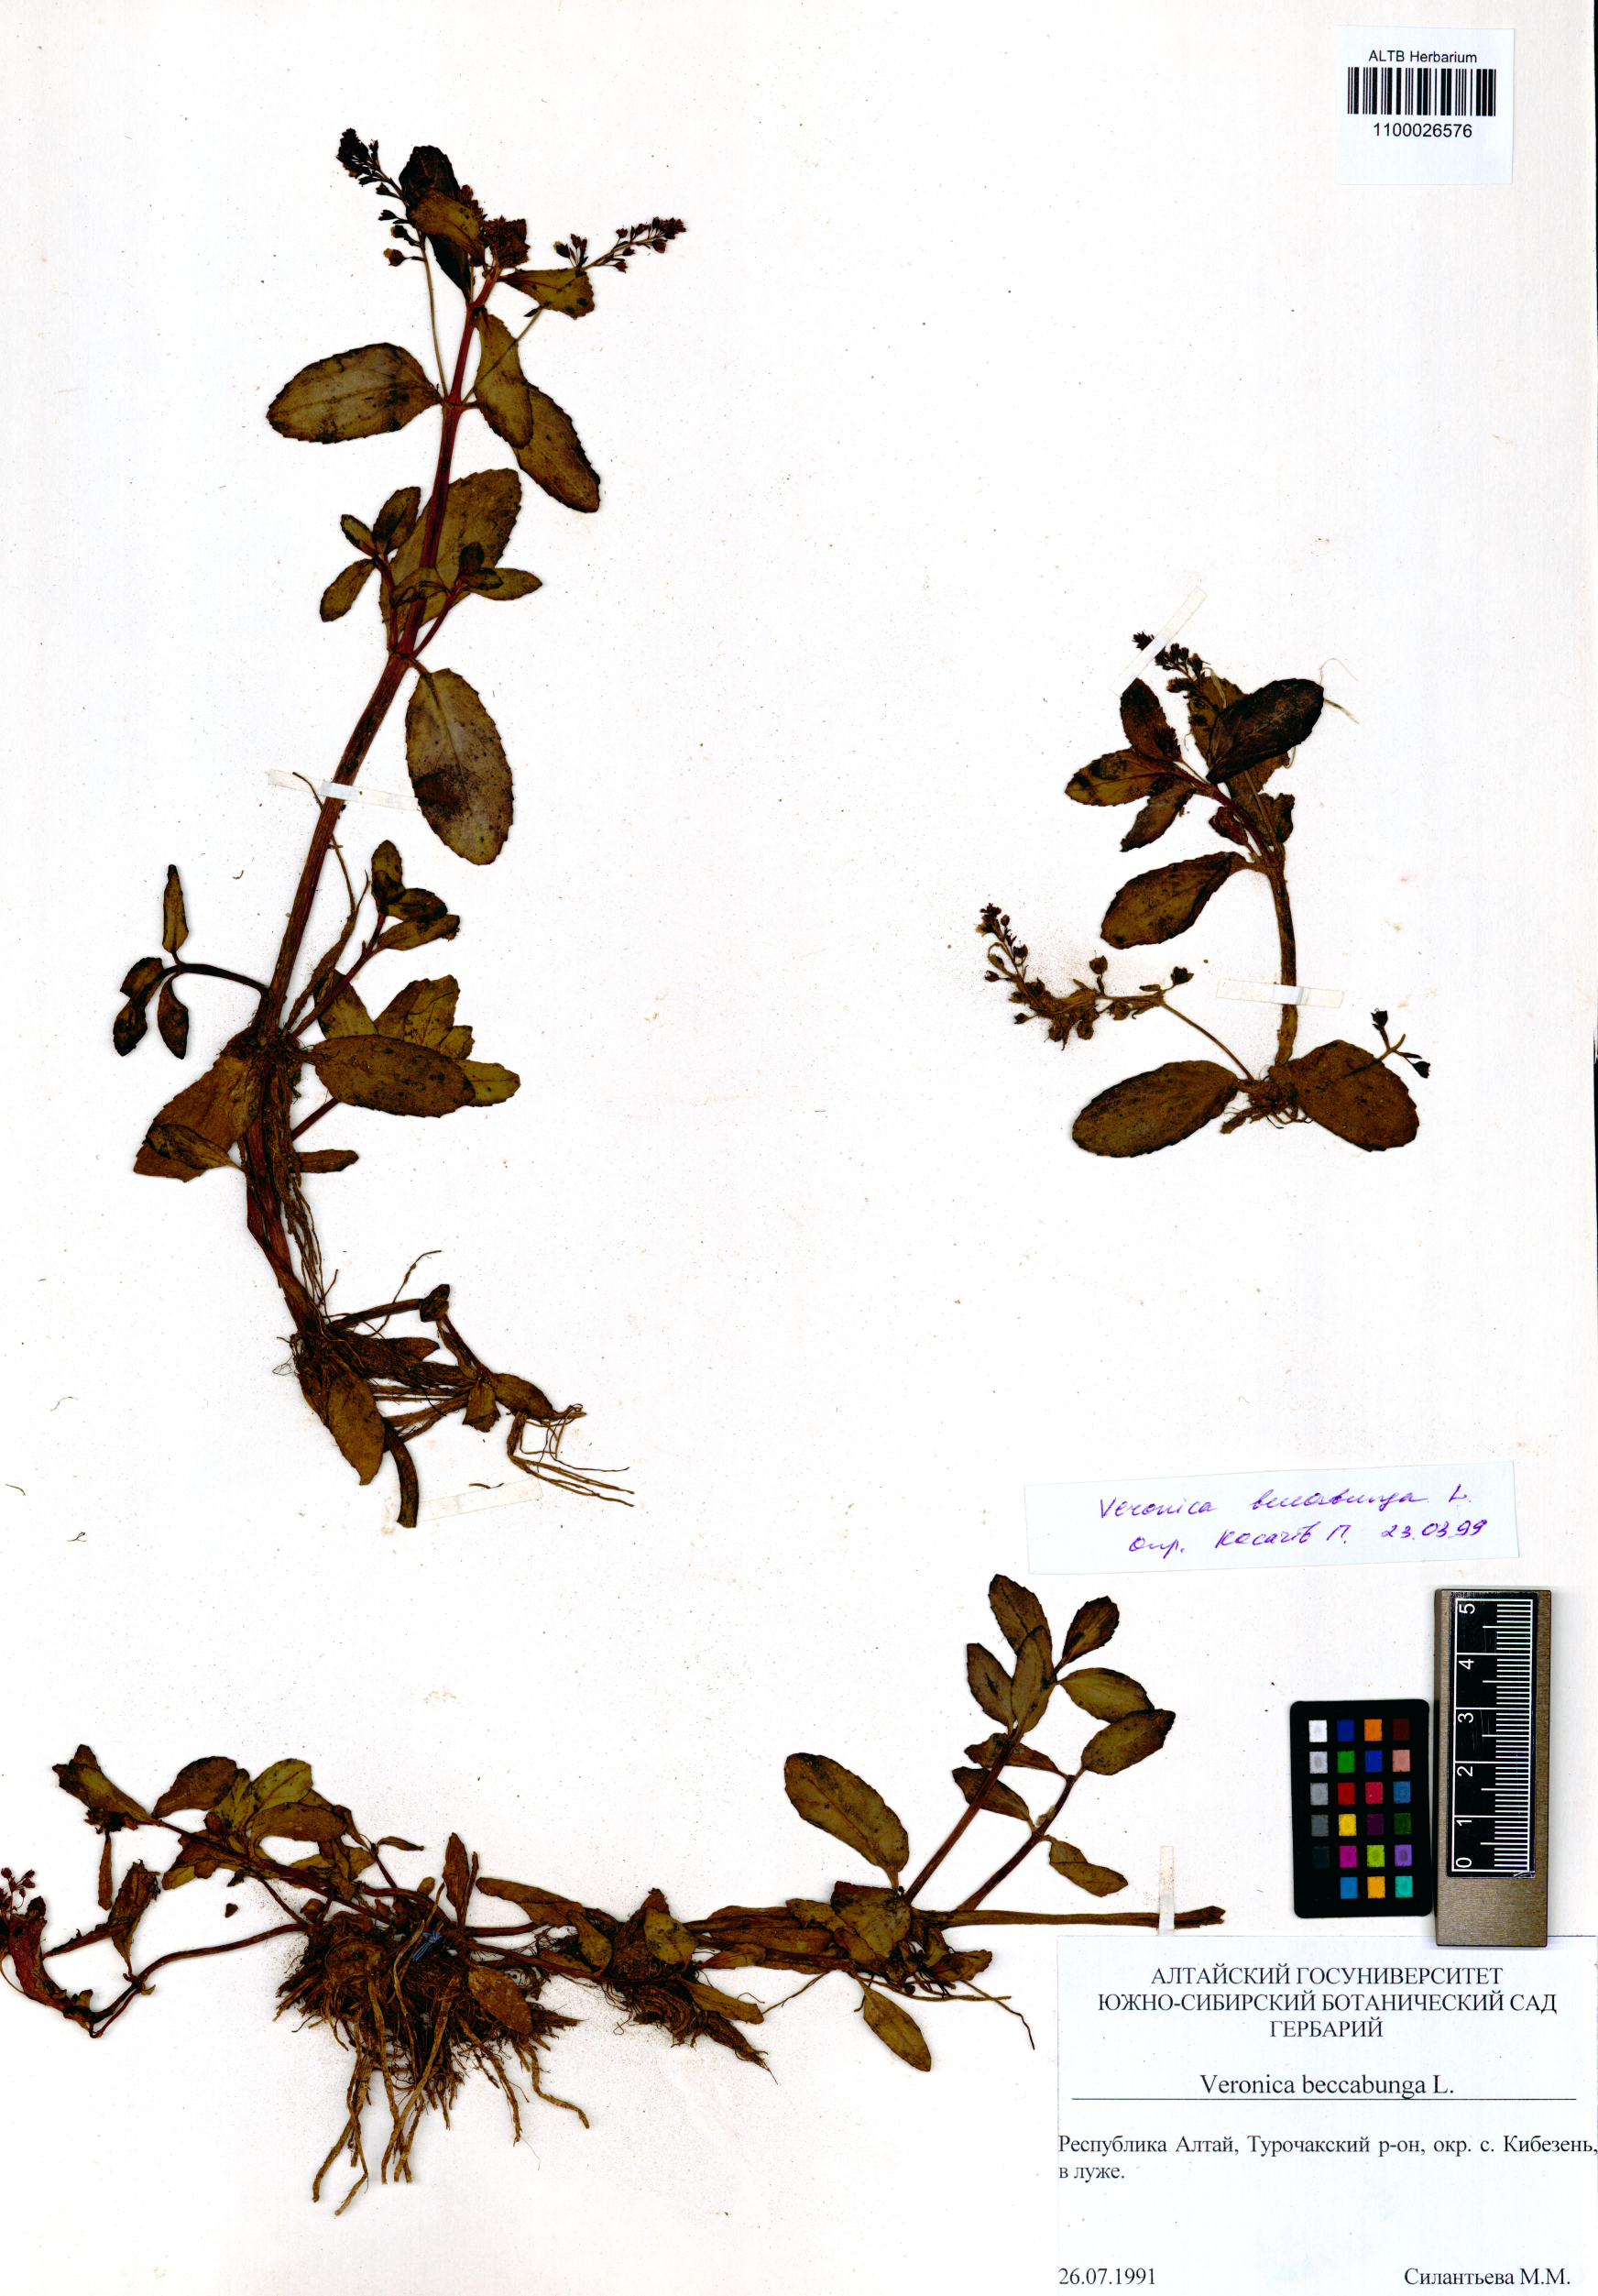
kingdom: Plantae
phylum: Tracheophyta
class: Magnoliopsida
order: Lamiales
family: Plantaginaceae
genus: Veronica
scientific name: Veronica beccabunga
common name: Brooklime
